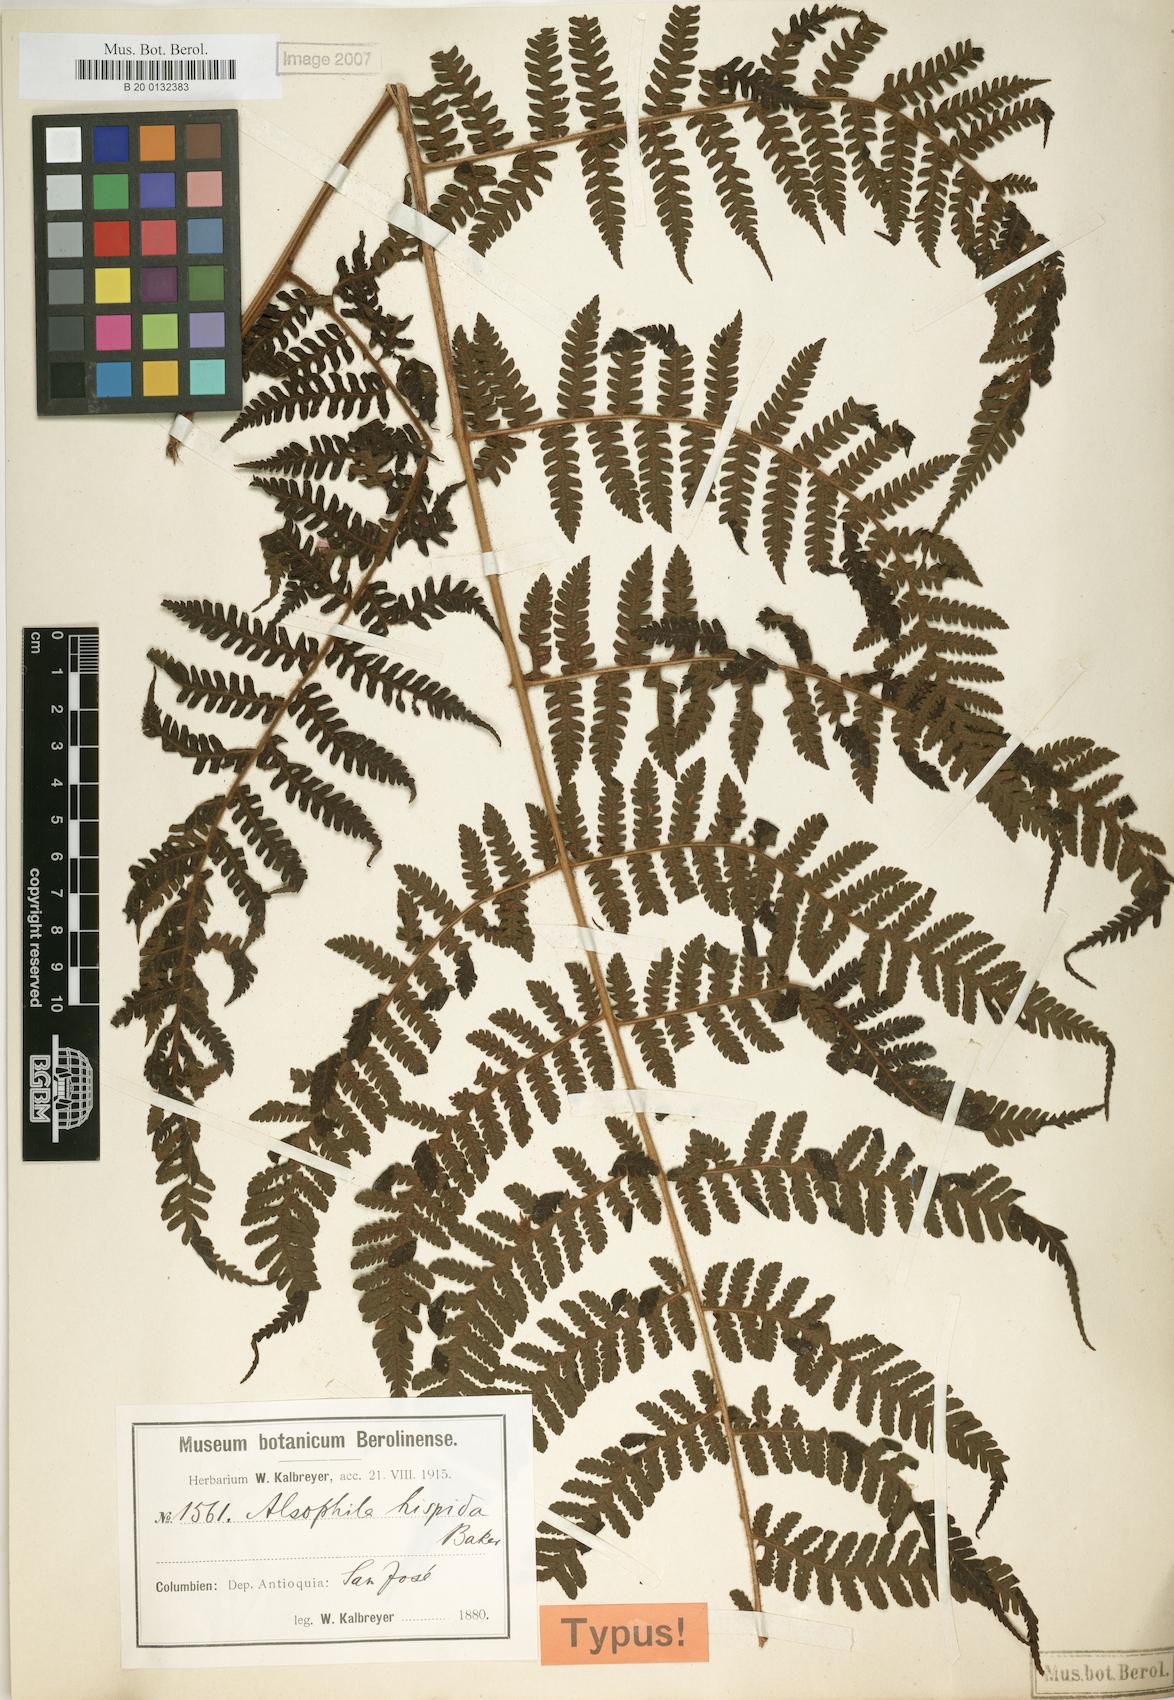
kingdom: Plantae
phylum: Tracheophyta
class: Polypodiopsida
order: Cyatheales
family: Cyatheaceae
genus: Alsophila
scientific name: Alsophila hispida
